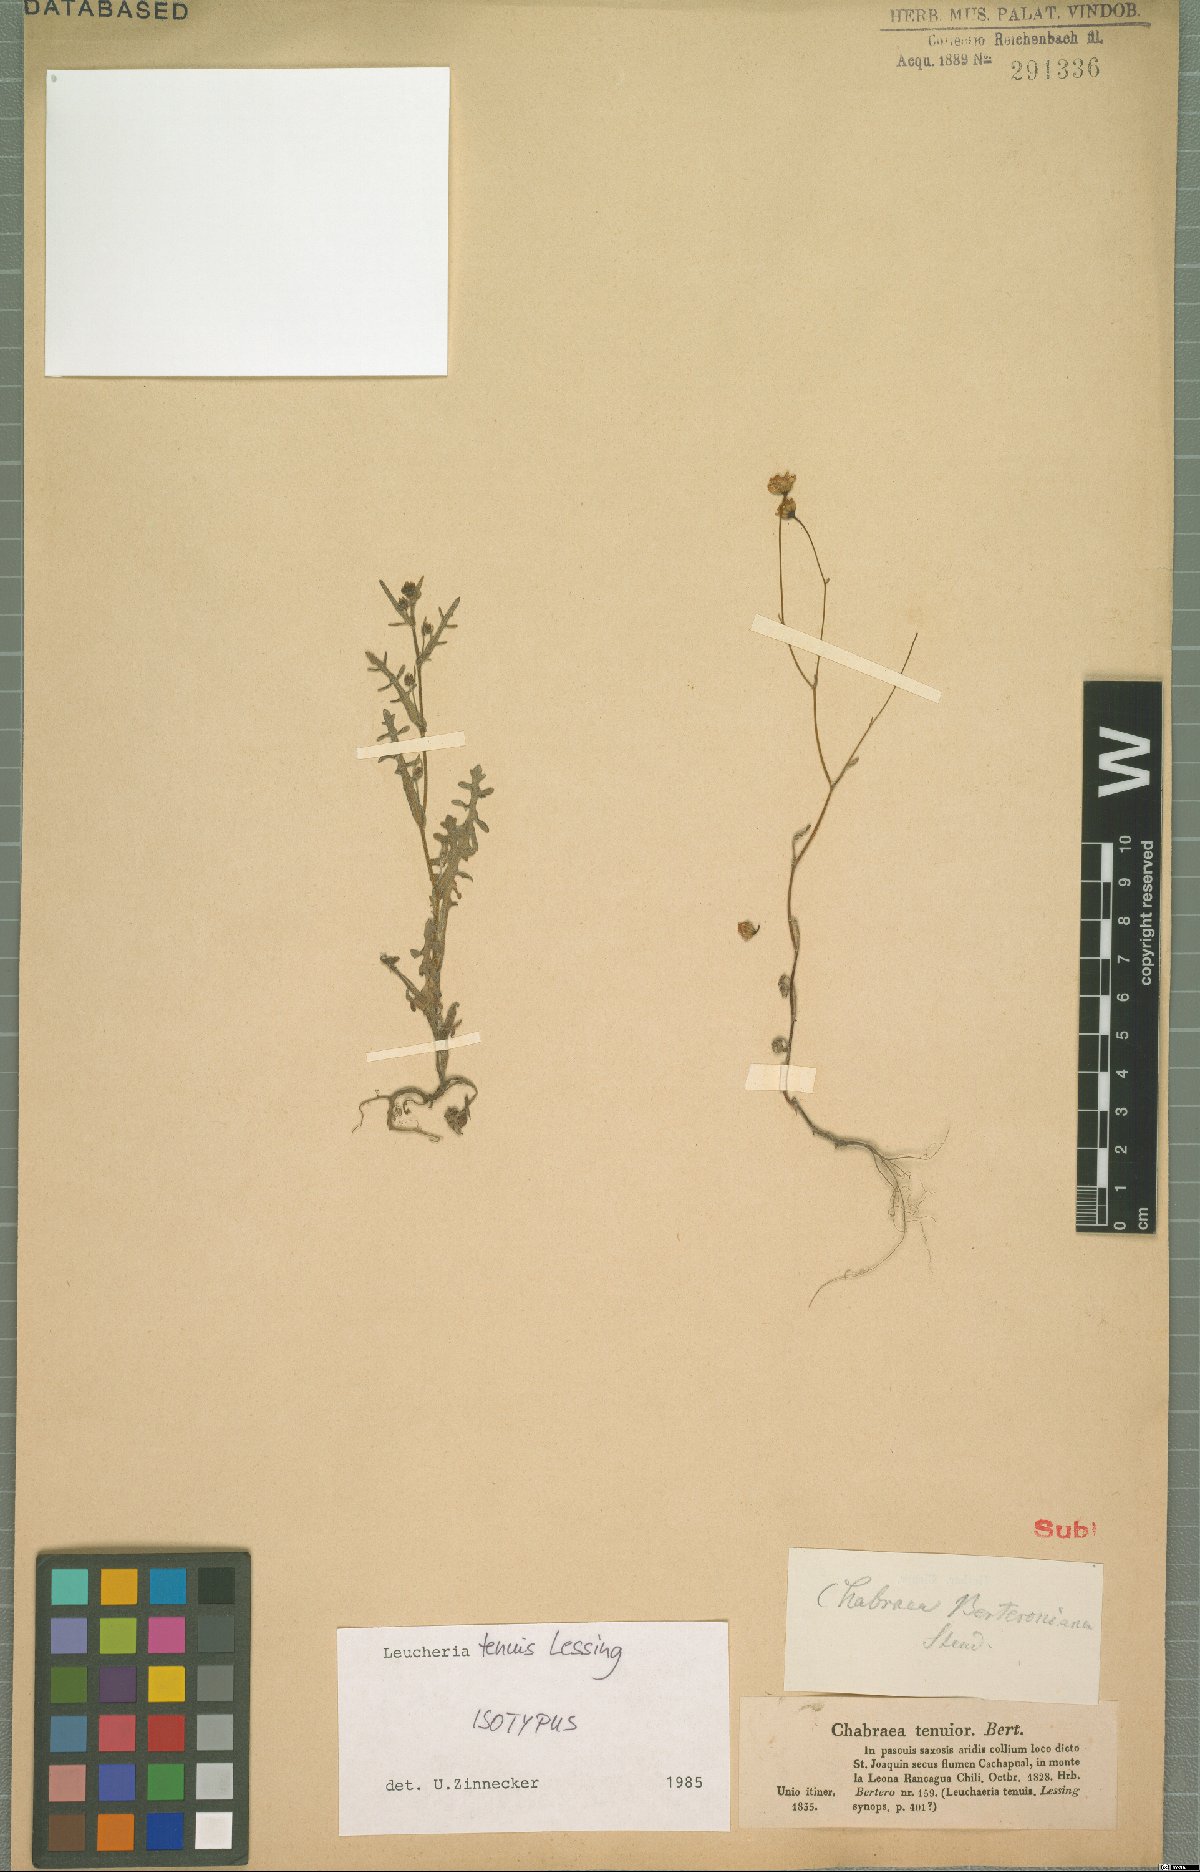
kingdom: Plantae
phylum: Tracheophyta
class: Magnoliopsida
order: Asterales
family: Asteraceae
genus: Leucheria
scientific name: Leucheria tenuis
